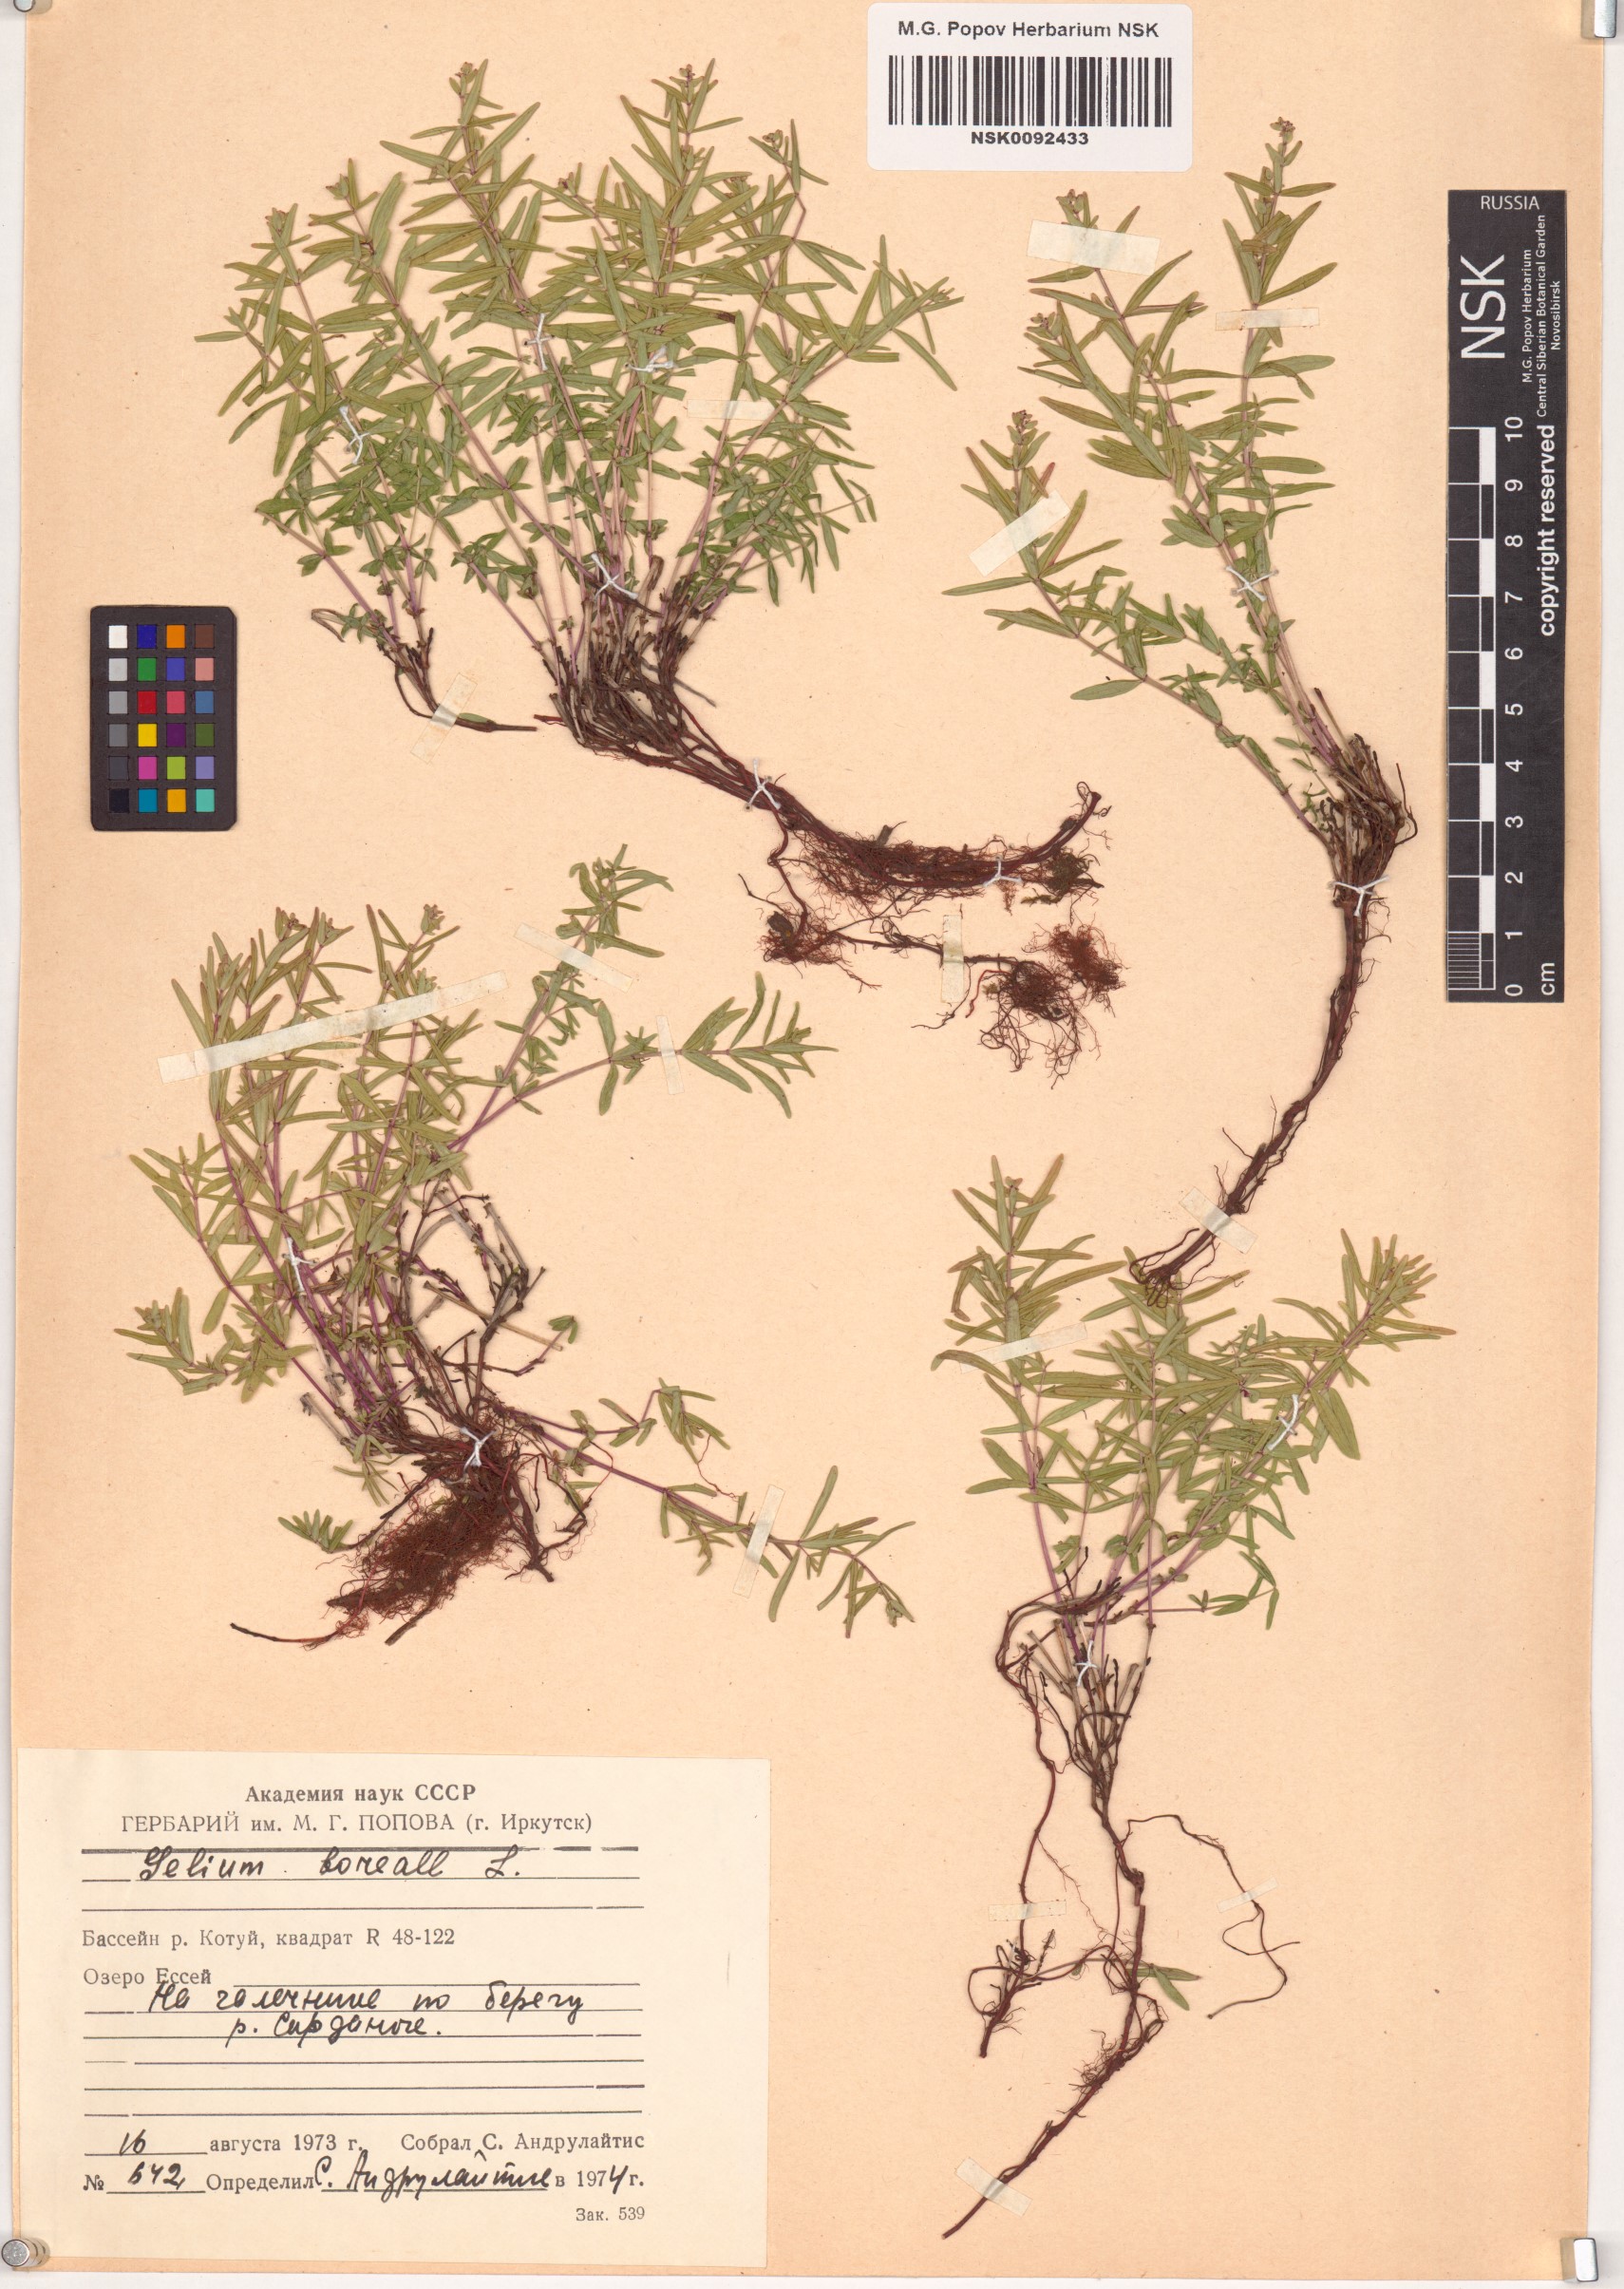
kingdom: Plantae
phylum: Tracheophyta
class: Magnoliopsida
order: Gentianales
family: Rubiaceae
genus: Galium
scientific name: Galium boreale
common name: Northern bedstraw
